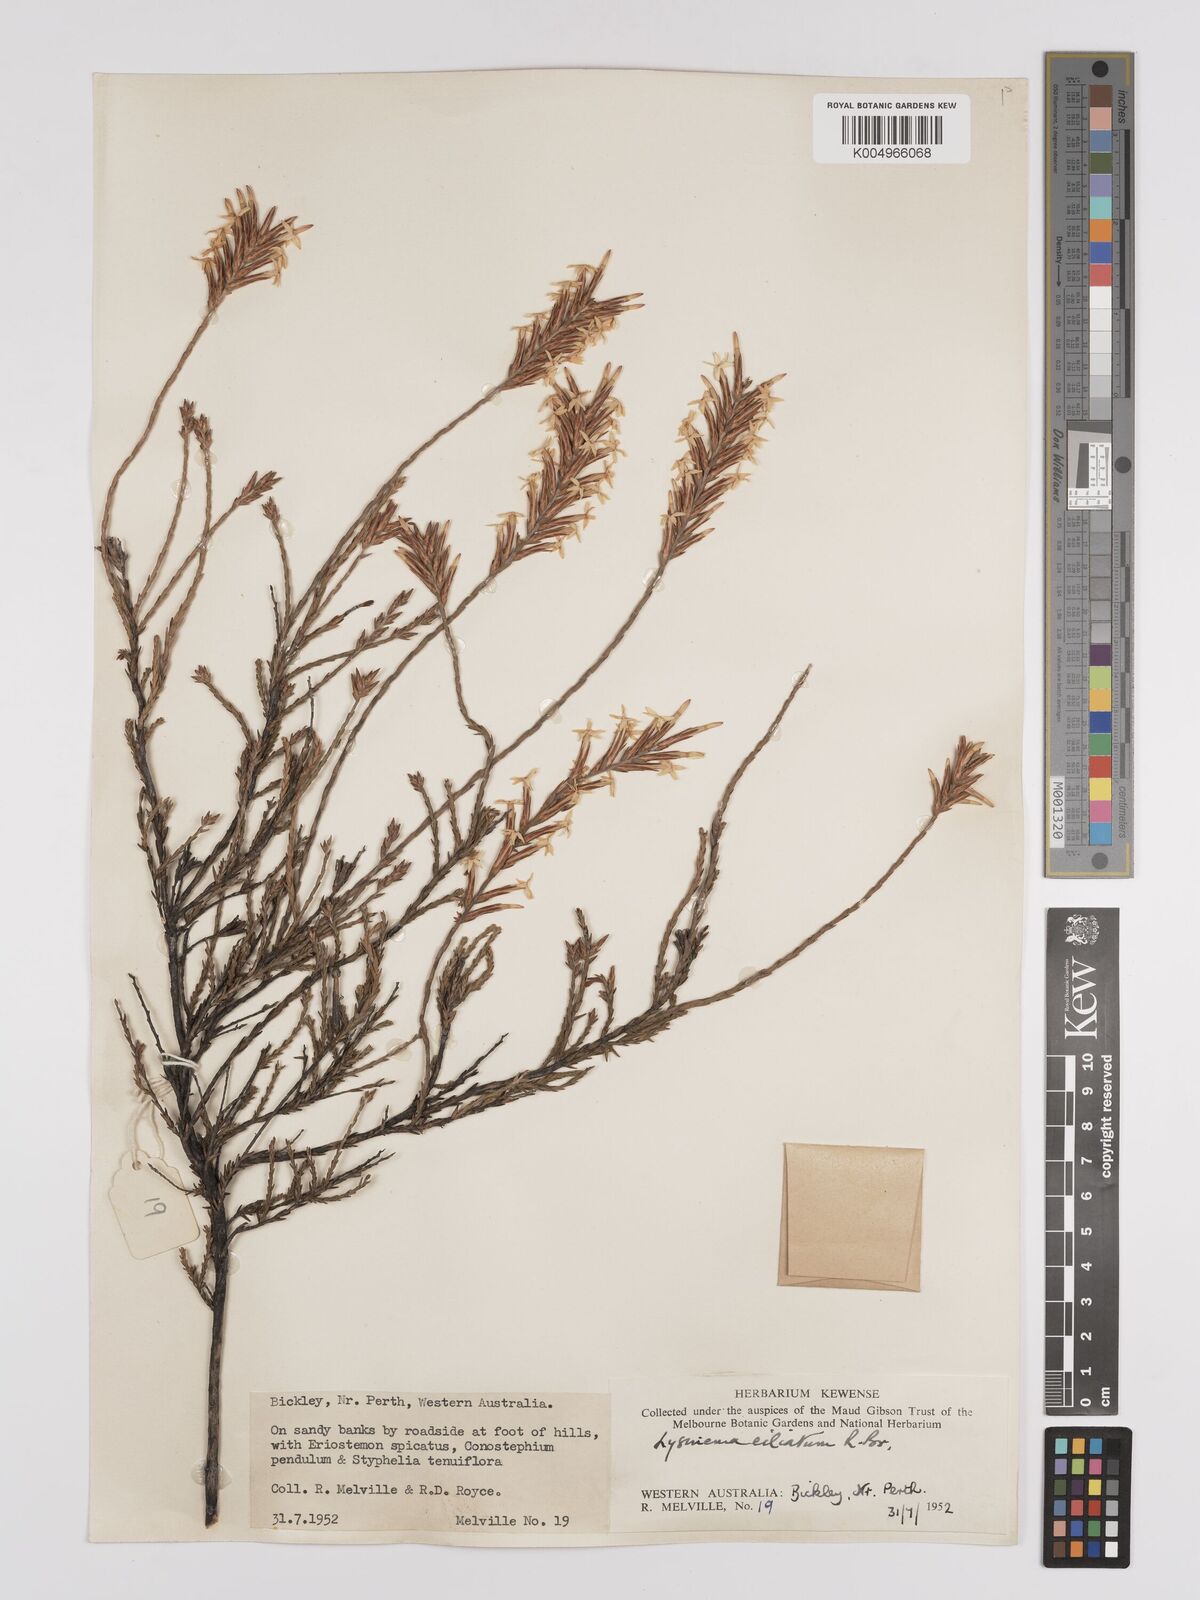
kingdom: Plantae
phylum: Tracheophyta
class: Magnoliopsida
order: Ericales
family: Ericaceae
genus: Lysinema
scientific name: Lysinema ciliatum
